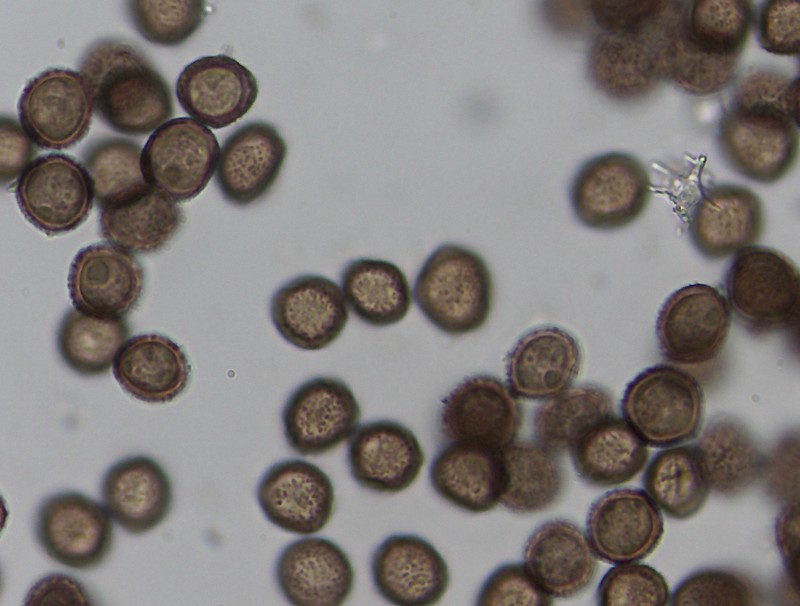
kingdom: Protozoa
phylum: Mycetozoa
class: Myxomycetes
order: Physarales
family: Didymiaceae
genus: Didymium
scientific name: Didymium squamulosum
